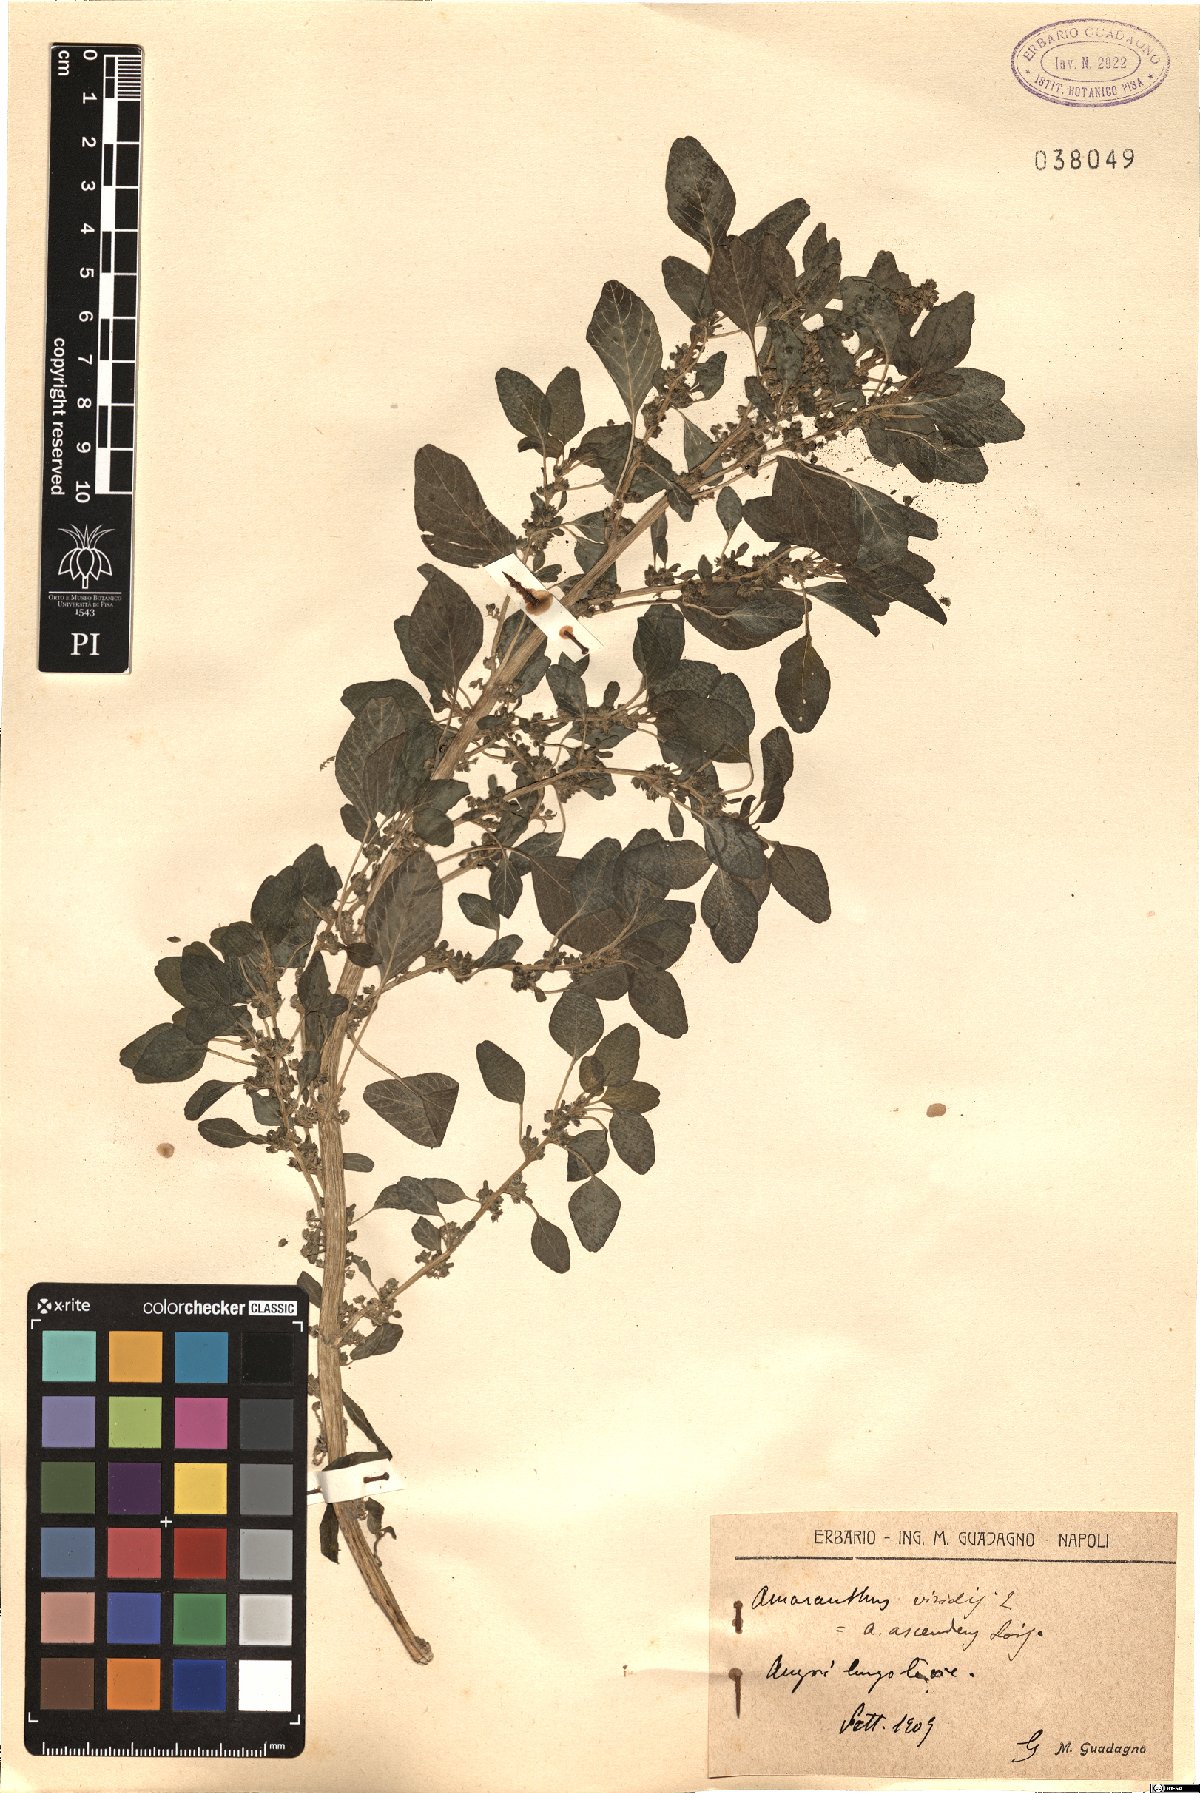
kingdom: Plantae
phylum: Tracheophyta
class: Magnoliopsida
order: Caryophyllales
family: Amaranthaceae
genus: Amaranthus
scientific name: Amaranthus viridis
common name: Slender amaranth
